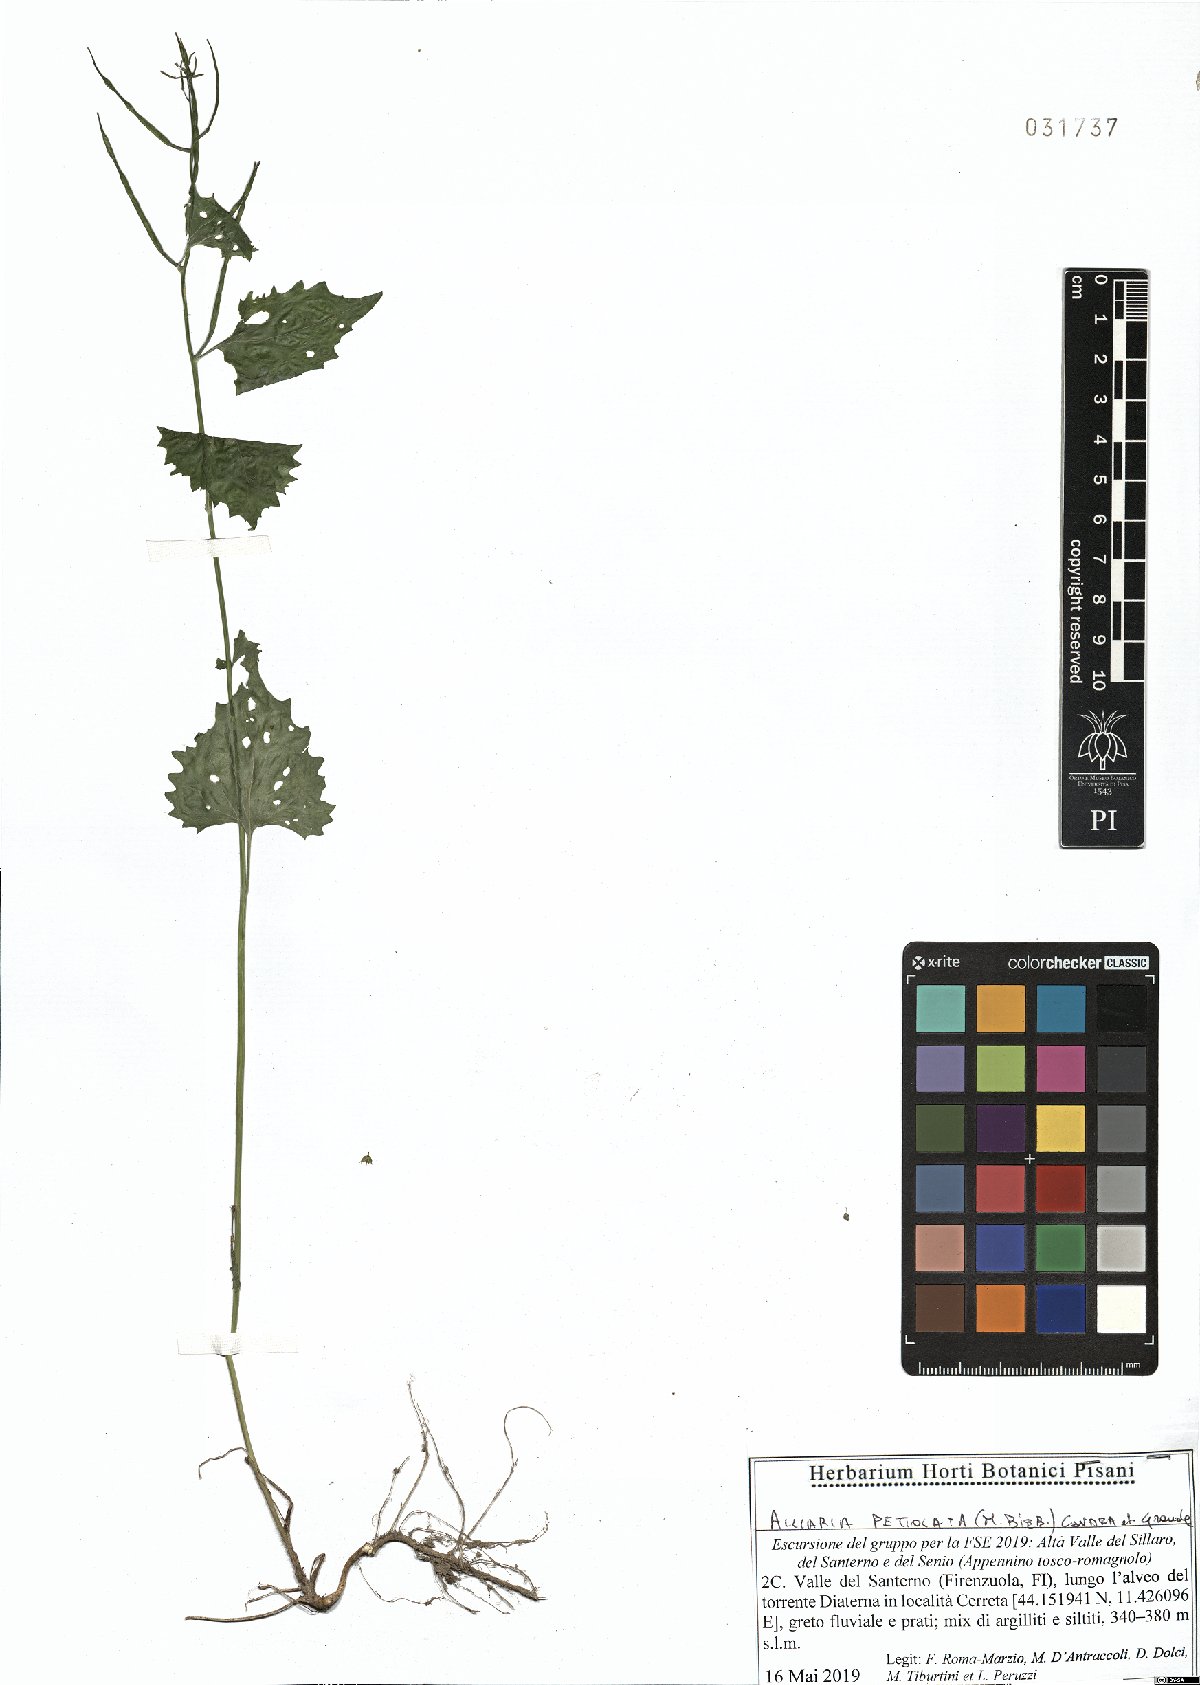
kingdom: Plantae
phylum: Tracheophyta
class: Magnoliopsida
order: Brassicales
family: Brassicaceae
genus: Alliaria
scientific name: Alliaria petiolata
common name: Garlic mustard
